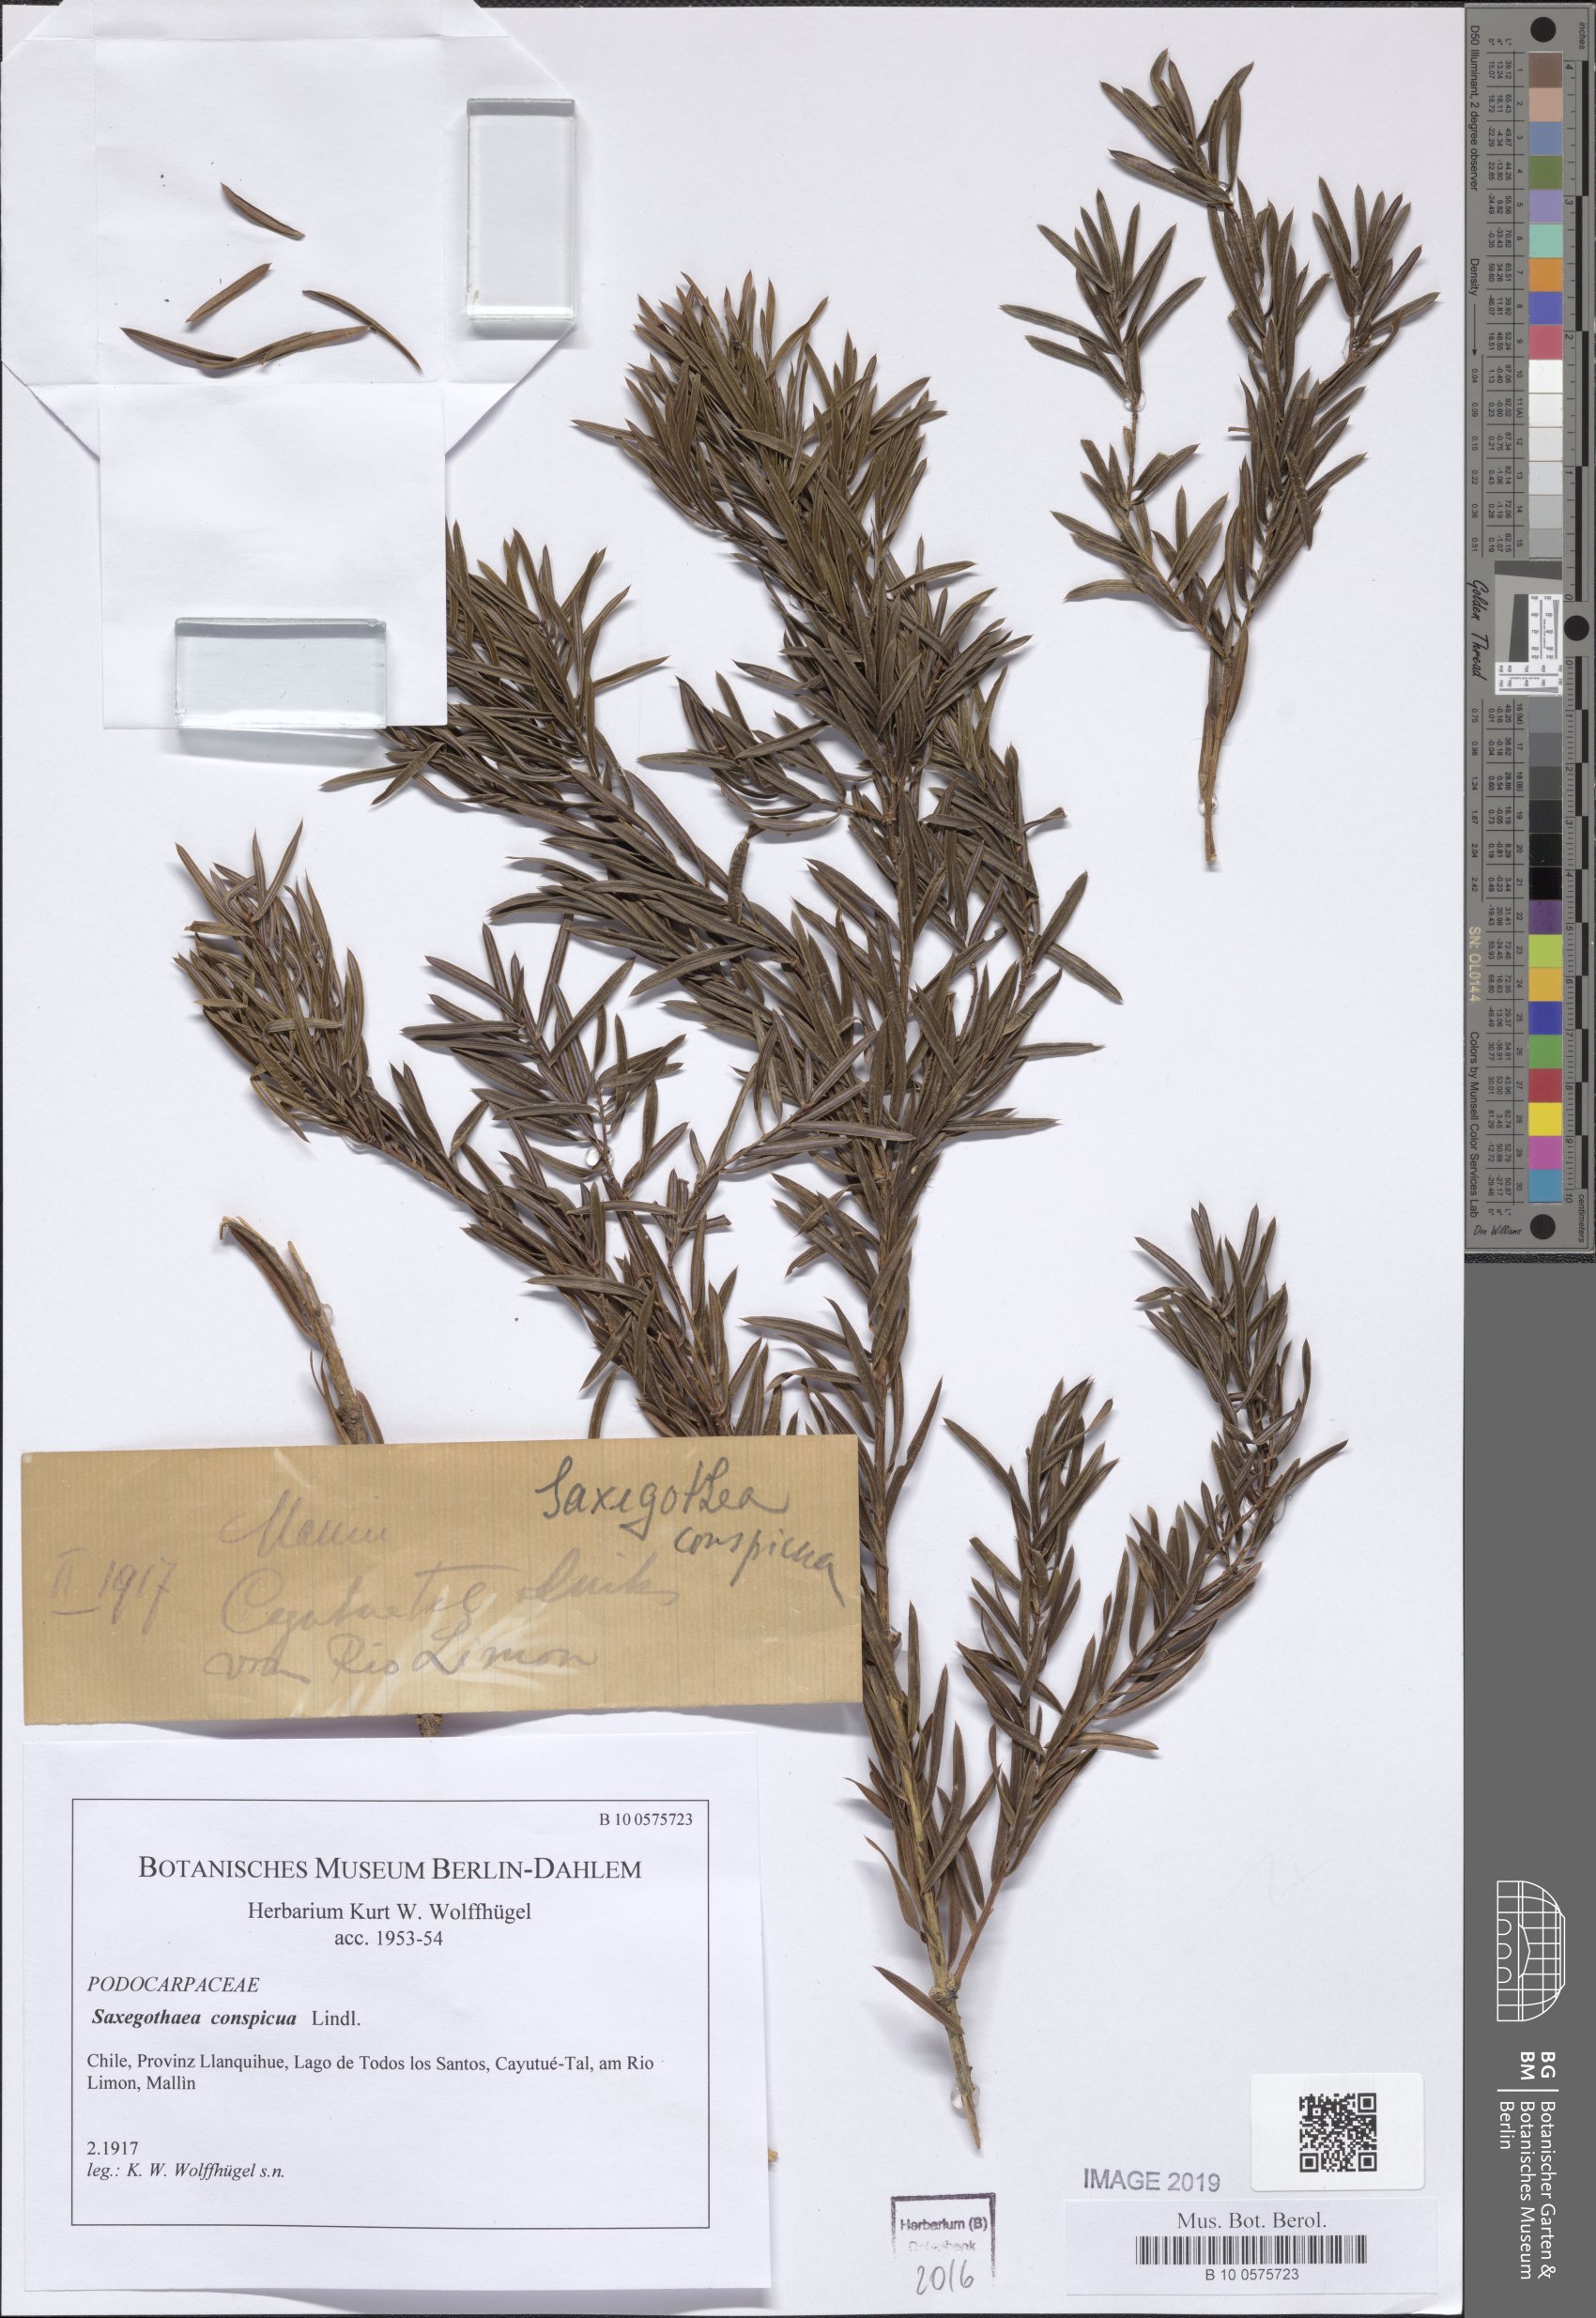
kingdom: Plantae
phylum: Tracheophyta
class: Pinopsida
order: Pinales
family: Podocarpaceae
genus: Saxegothaea
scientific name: Saxegothaea conspicua
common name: Prince albert's yew
